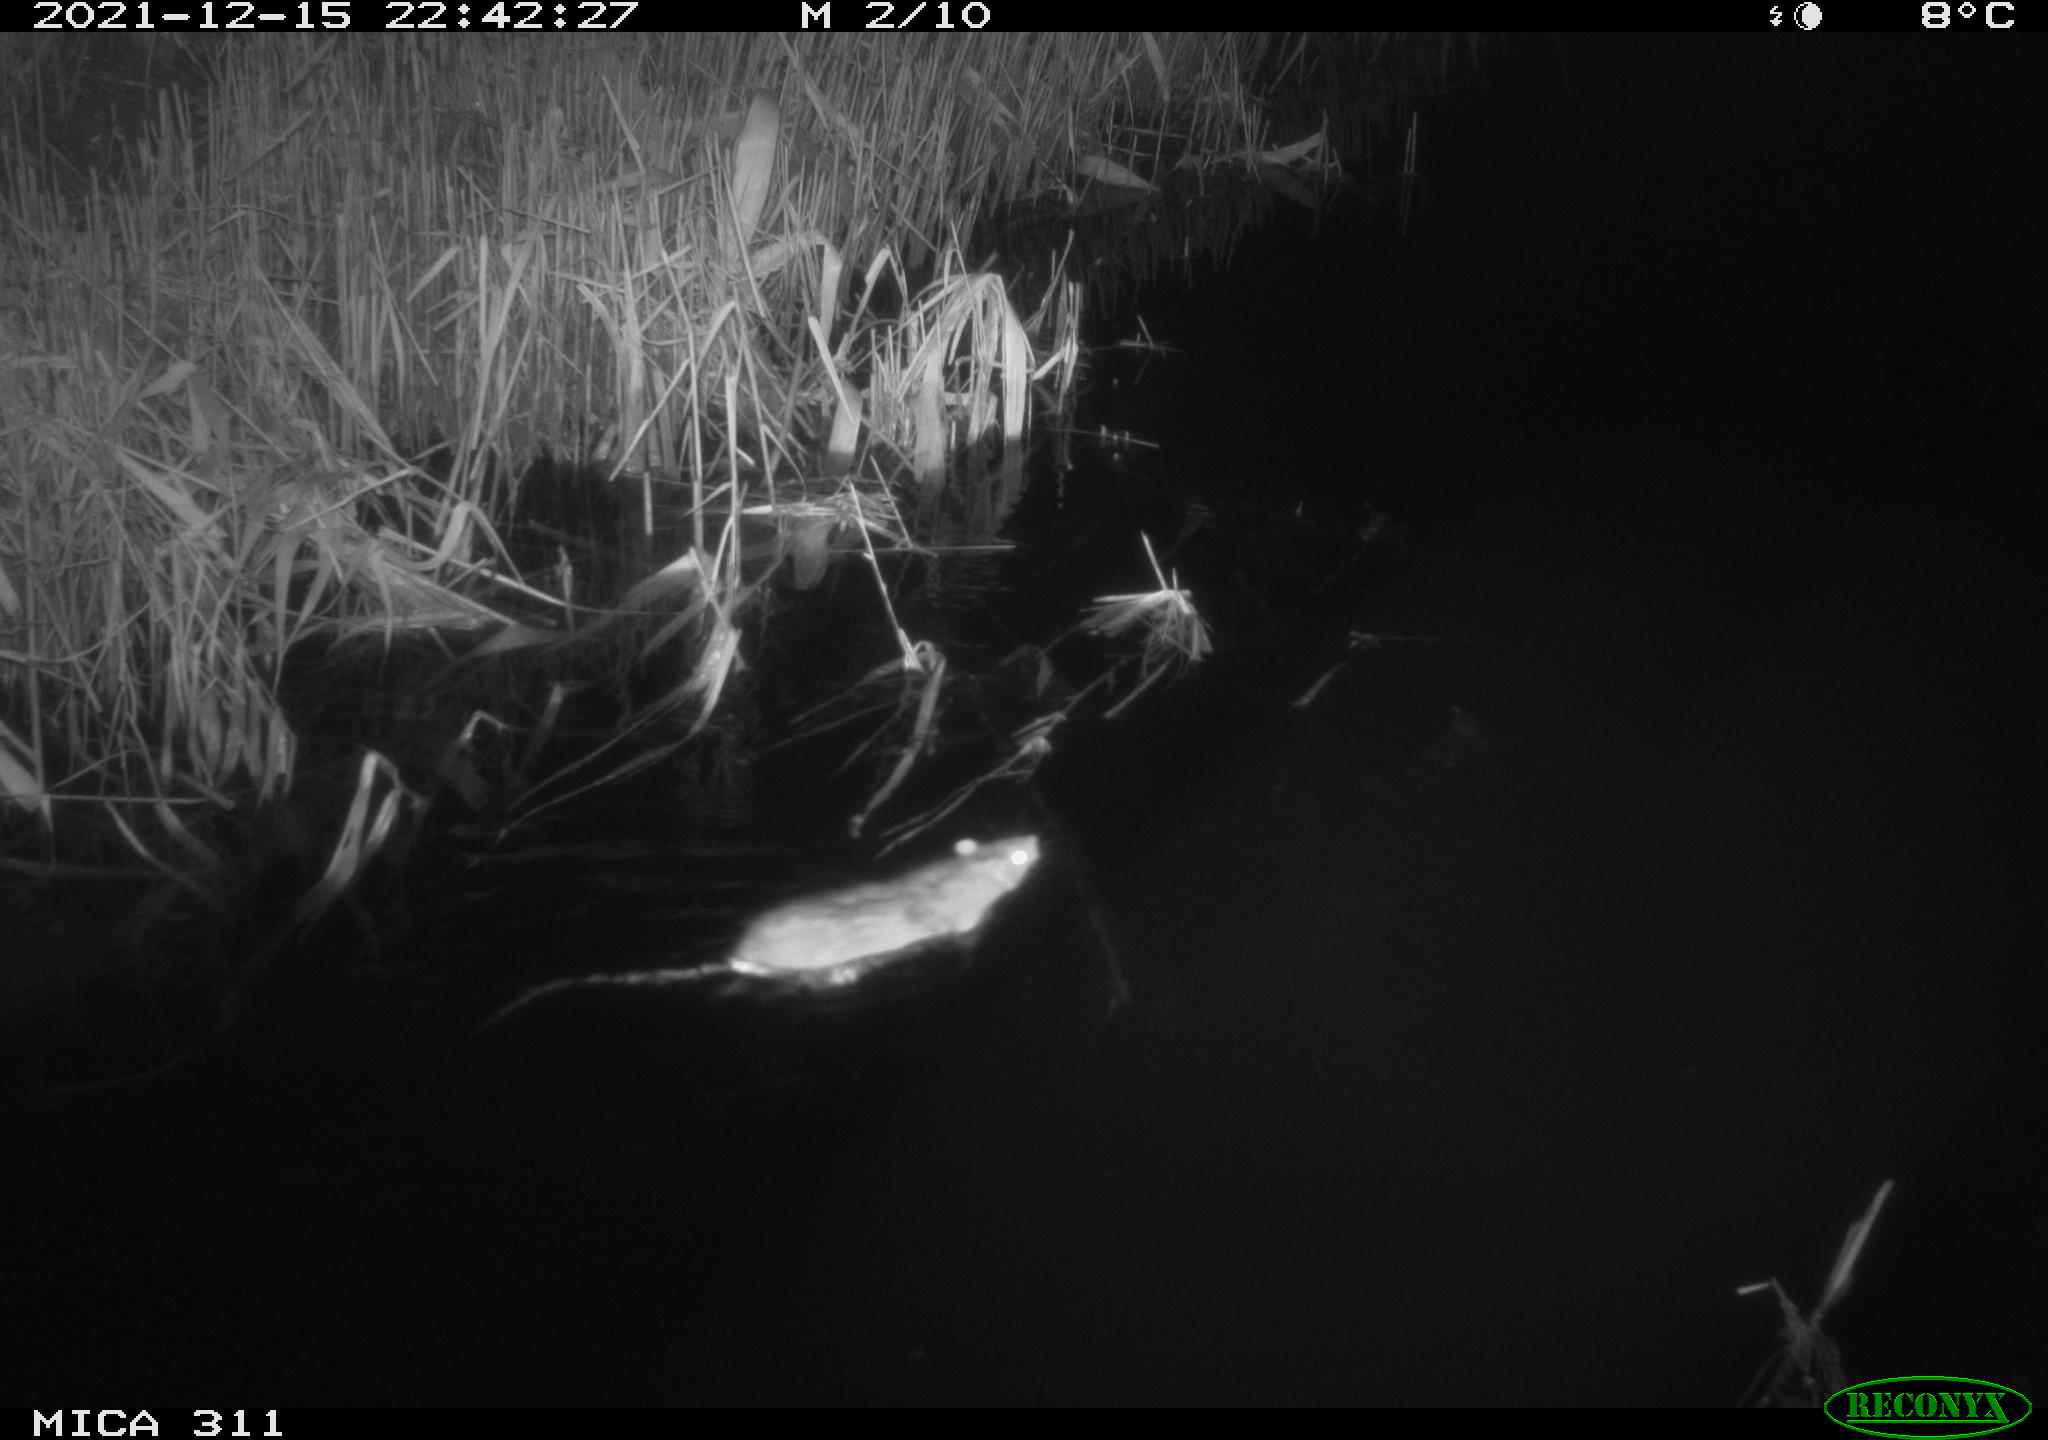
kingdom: Animalia
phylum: Chordata
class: Mammalia
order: Rodentia
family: Muridae
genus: Rattus
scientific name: Rattus norvegicus
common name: Brown rat
